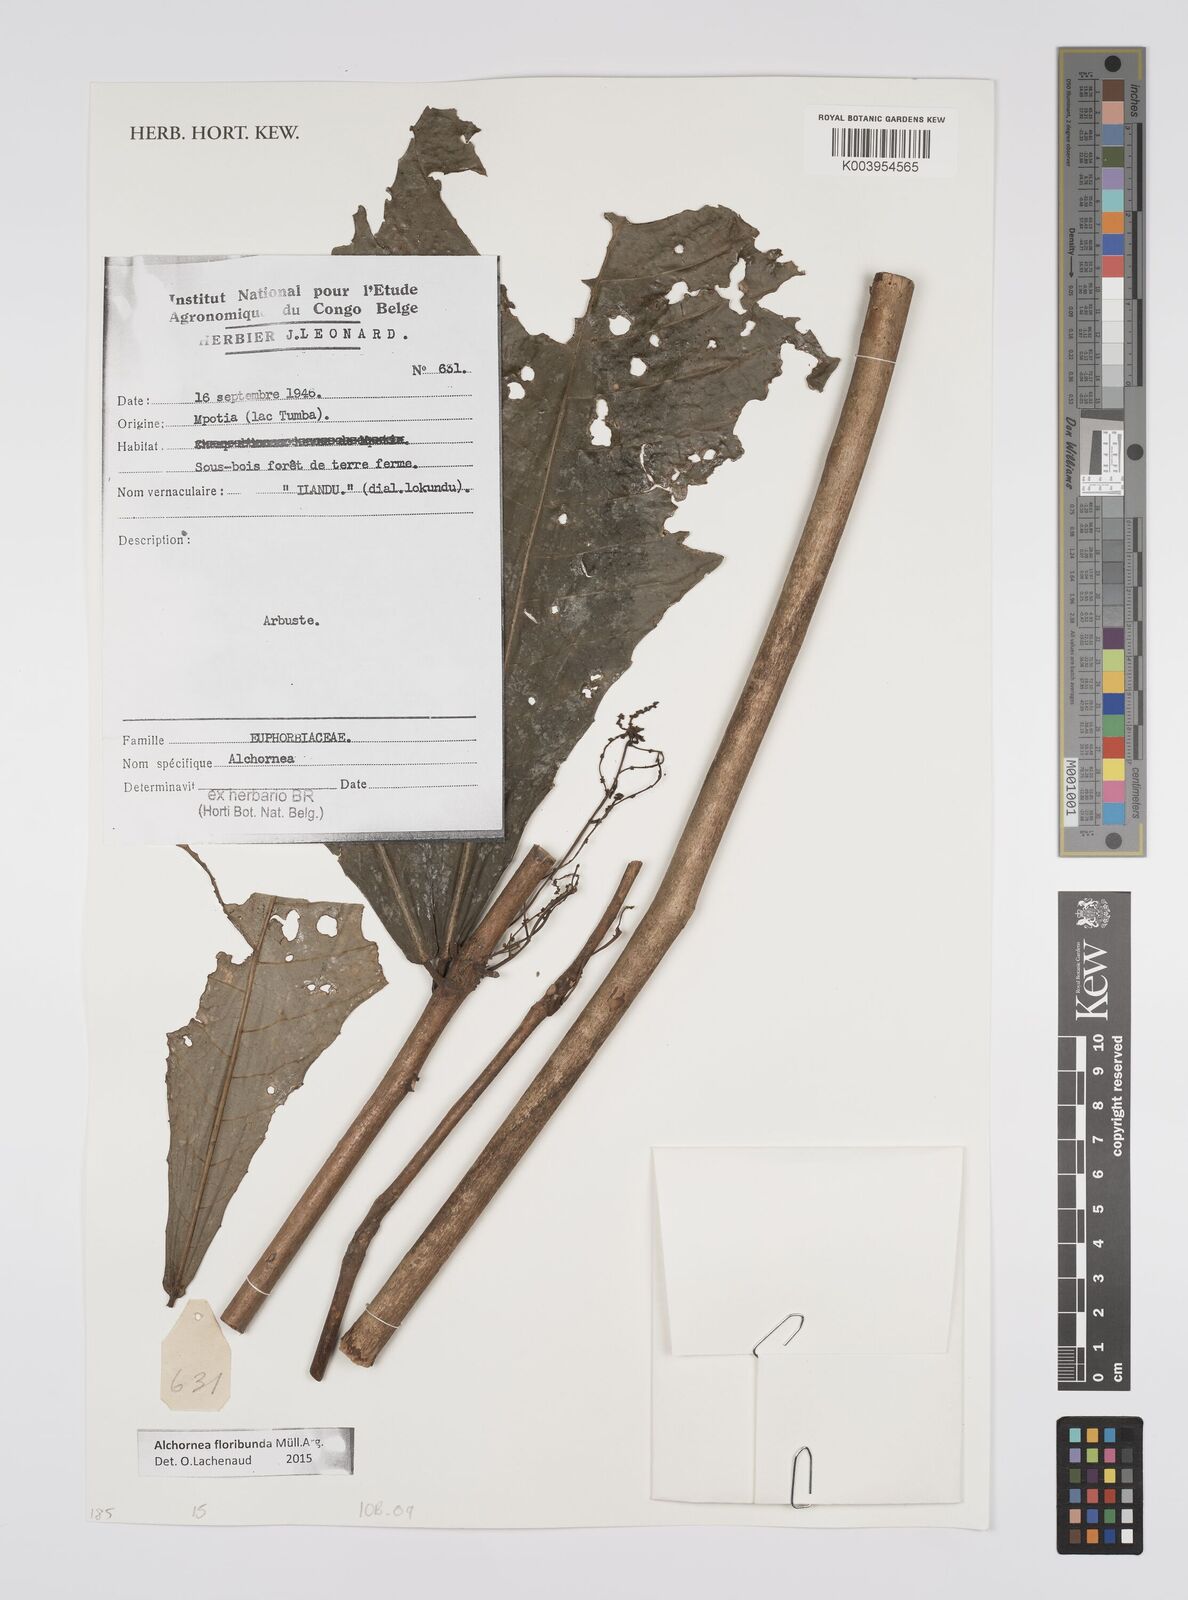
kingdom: Plantae
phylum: Tracheophyta
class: Magnoliopsida
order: Malpighiales
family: Euphorbiaceae
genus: Alchornea
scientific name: Alchornea floribunda
